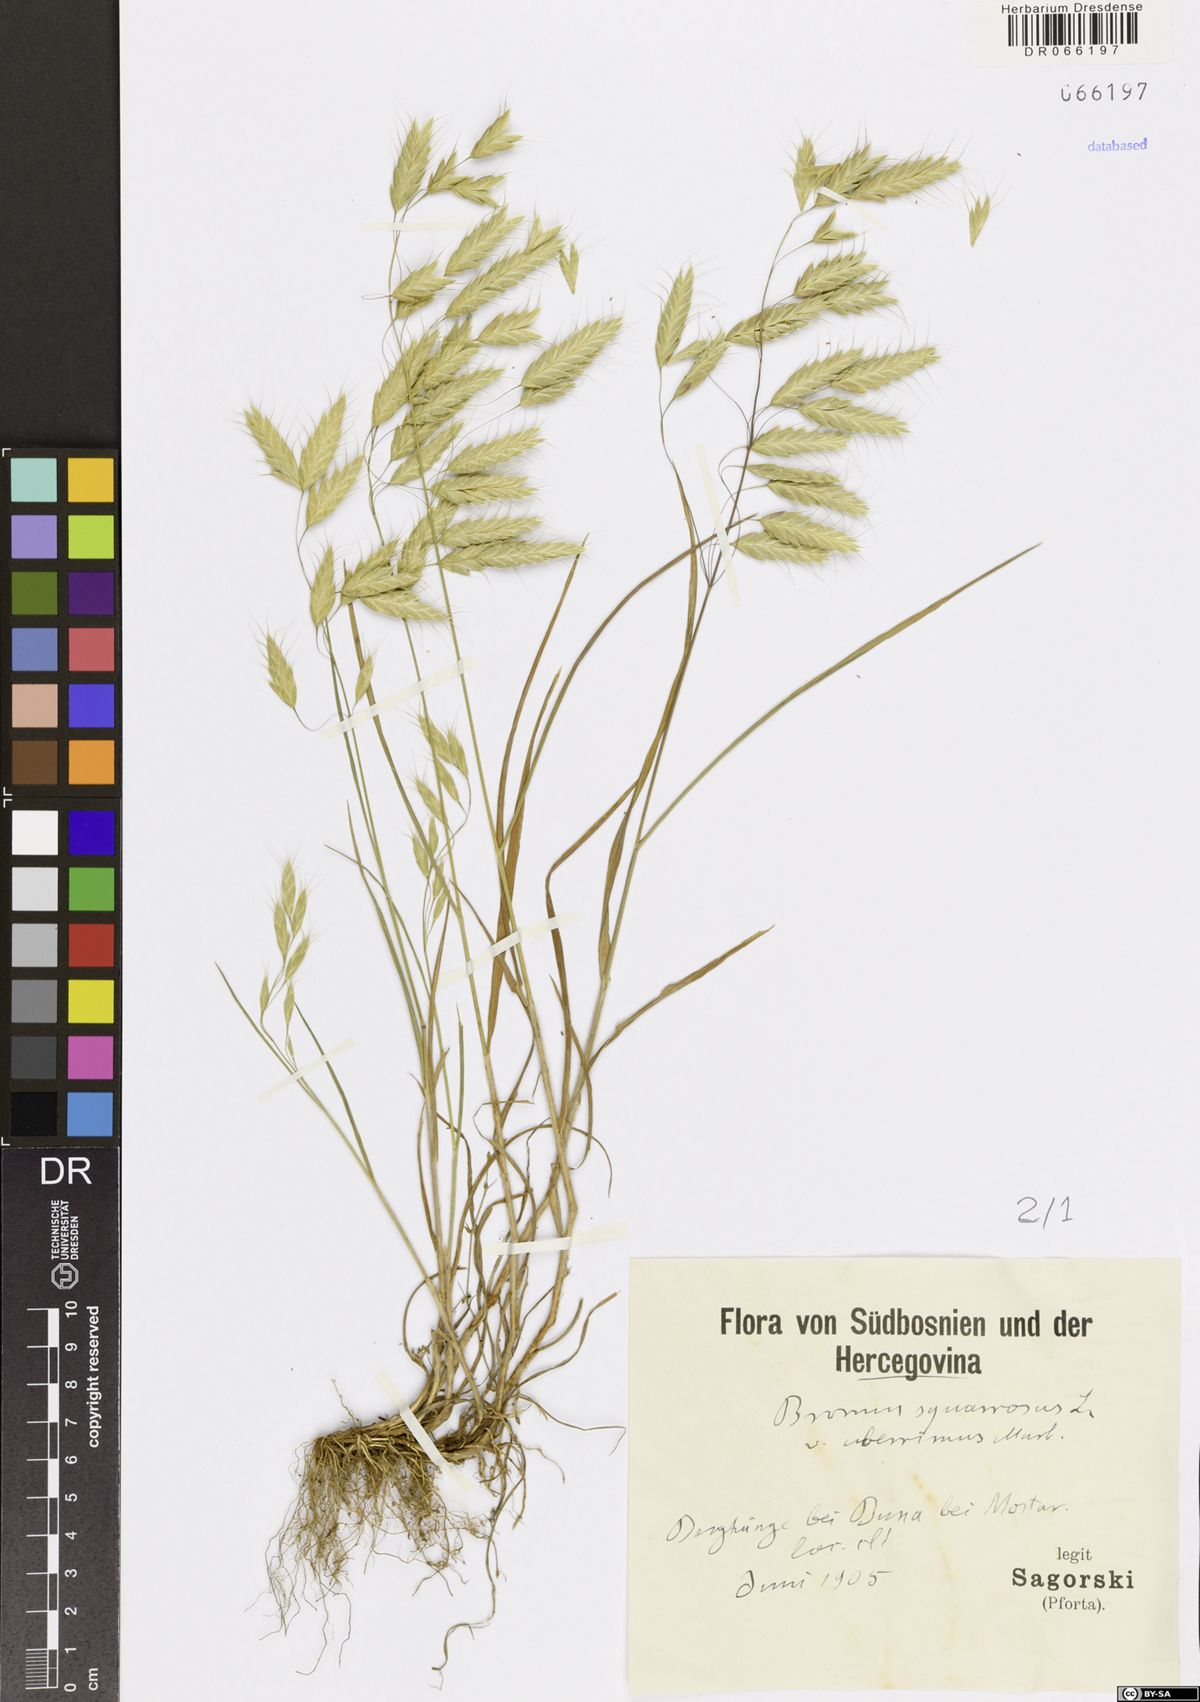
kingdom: Plantae
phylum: Tracheophyta
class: Liliopsida
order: Poales
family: Poaceae
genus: Bromus
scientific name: Bromus squarrosus
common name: Corn brome
